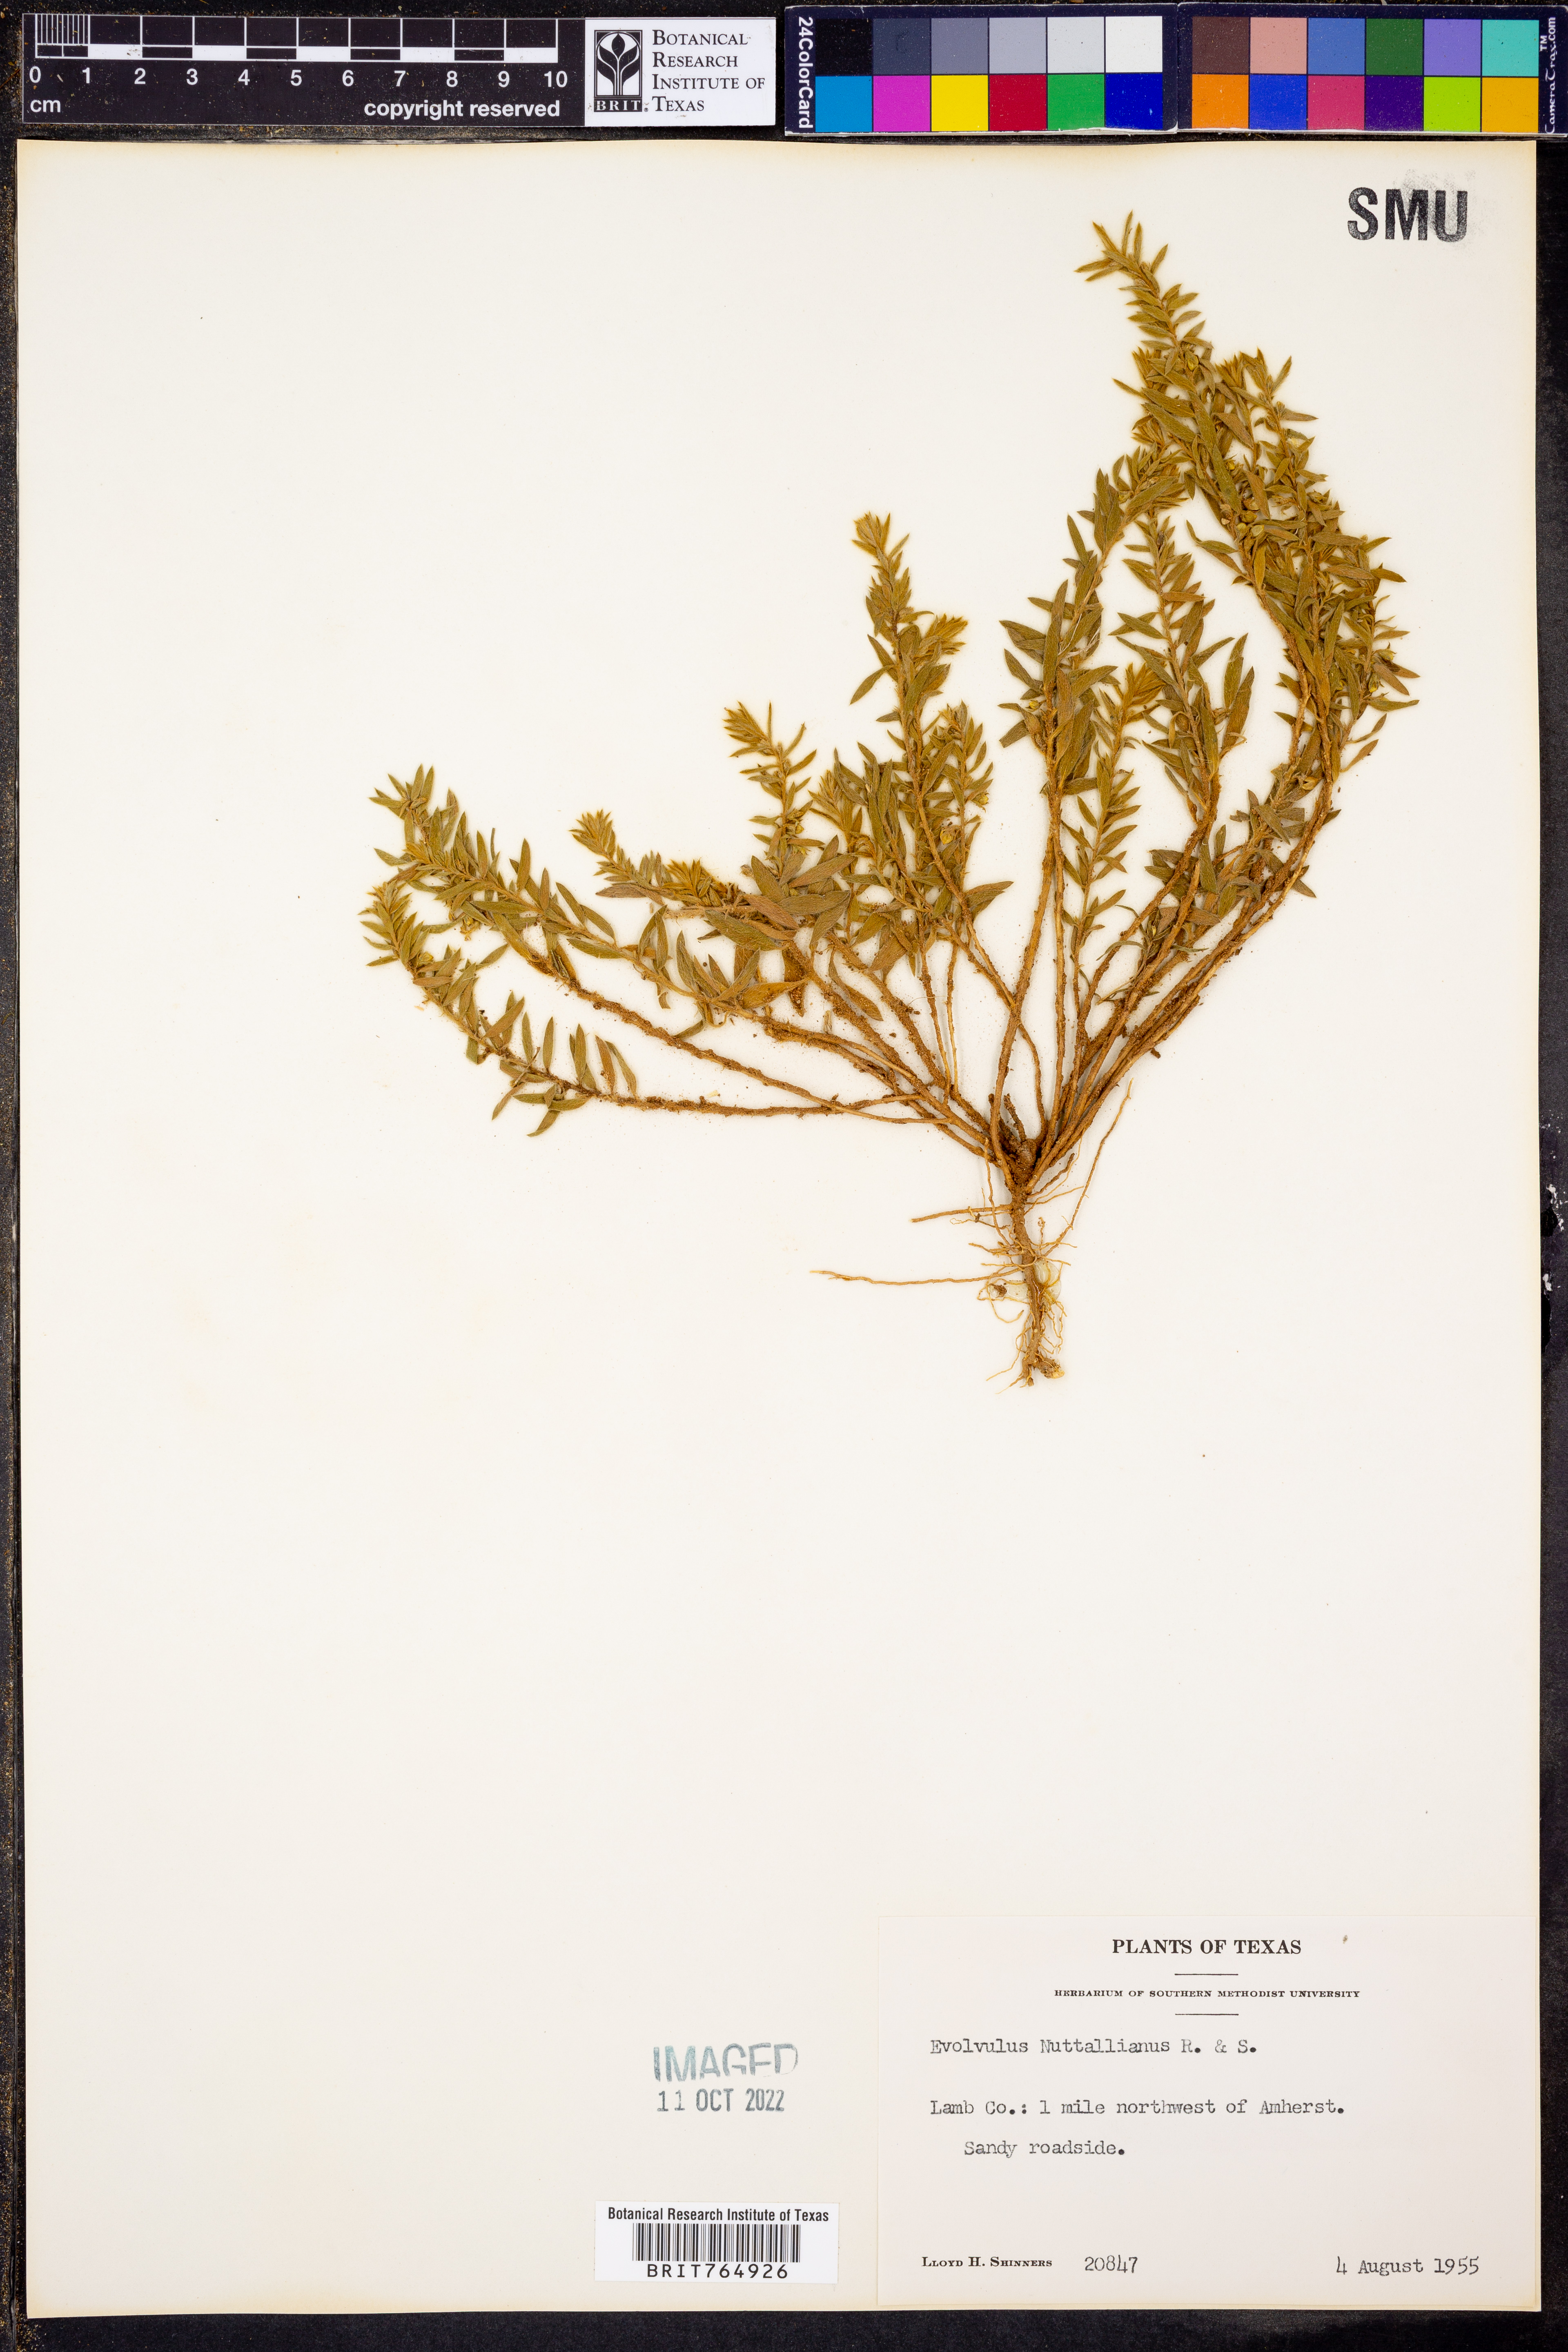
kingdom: Plantae
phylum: Tracheophyta
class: Magnoliopsida
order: Solanales
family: Convolvulaceae
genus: Evolvulus
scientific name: Evolvulus nuttallianus
